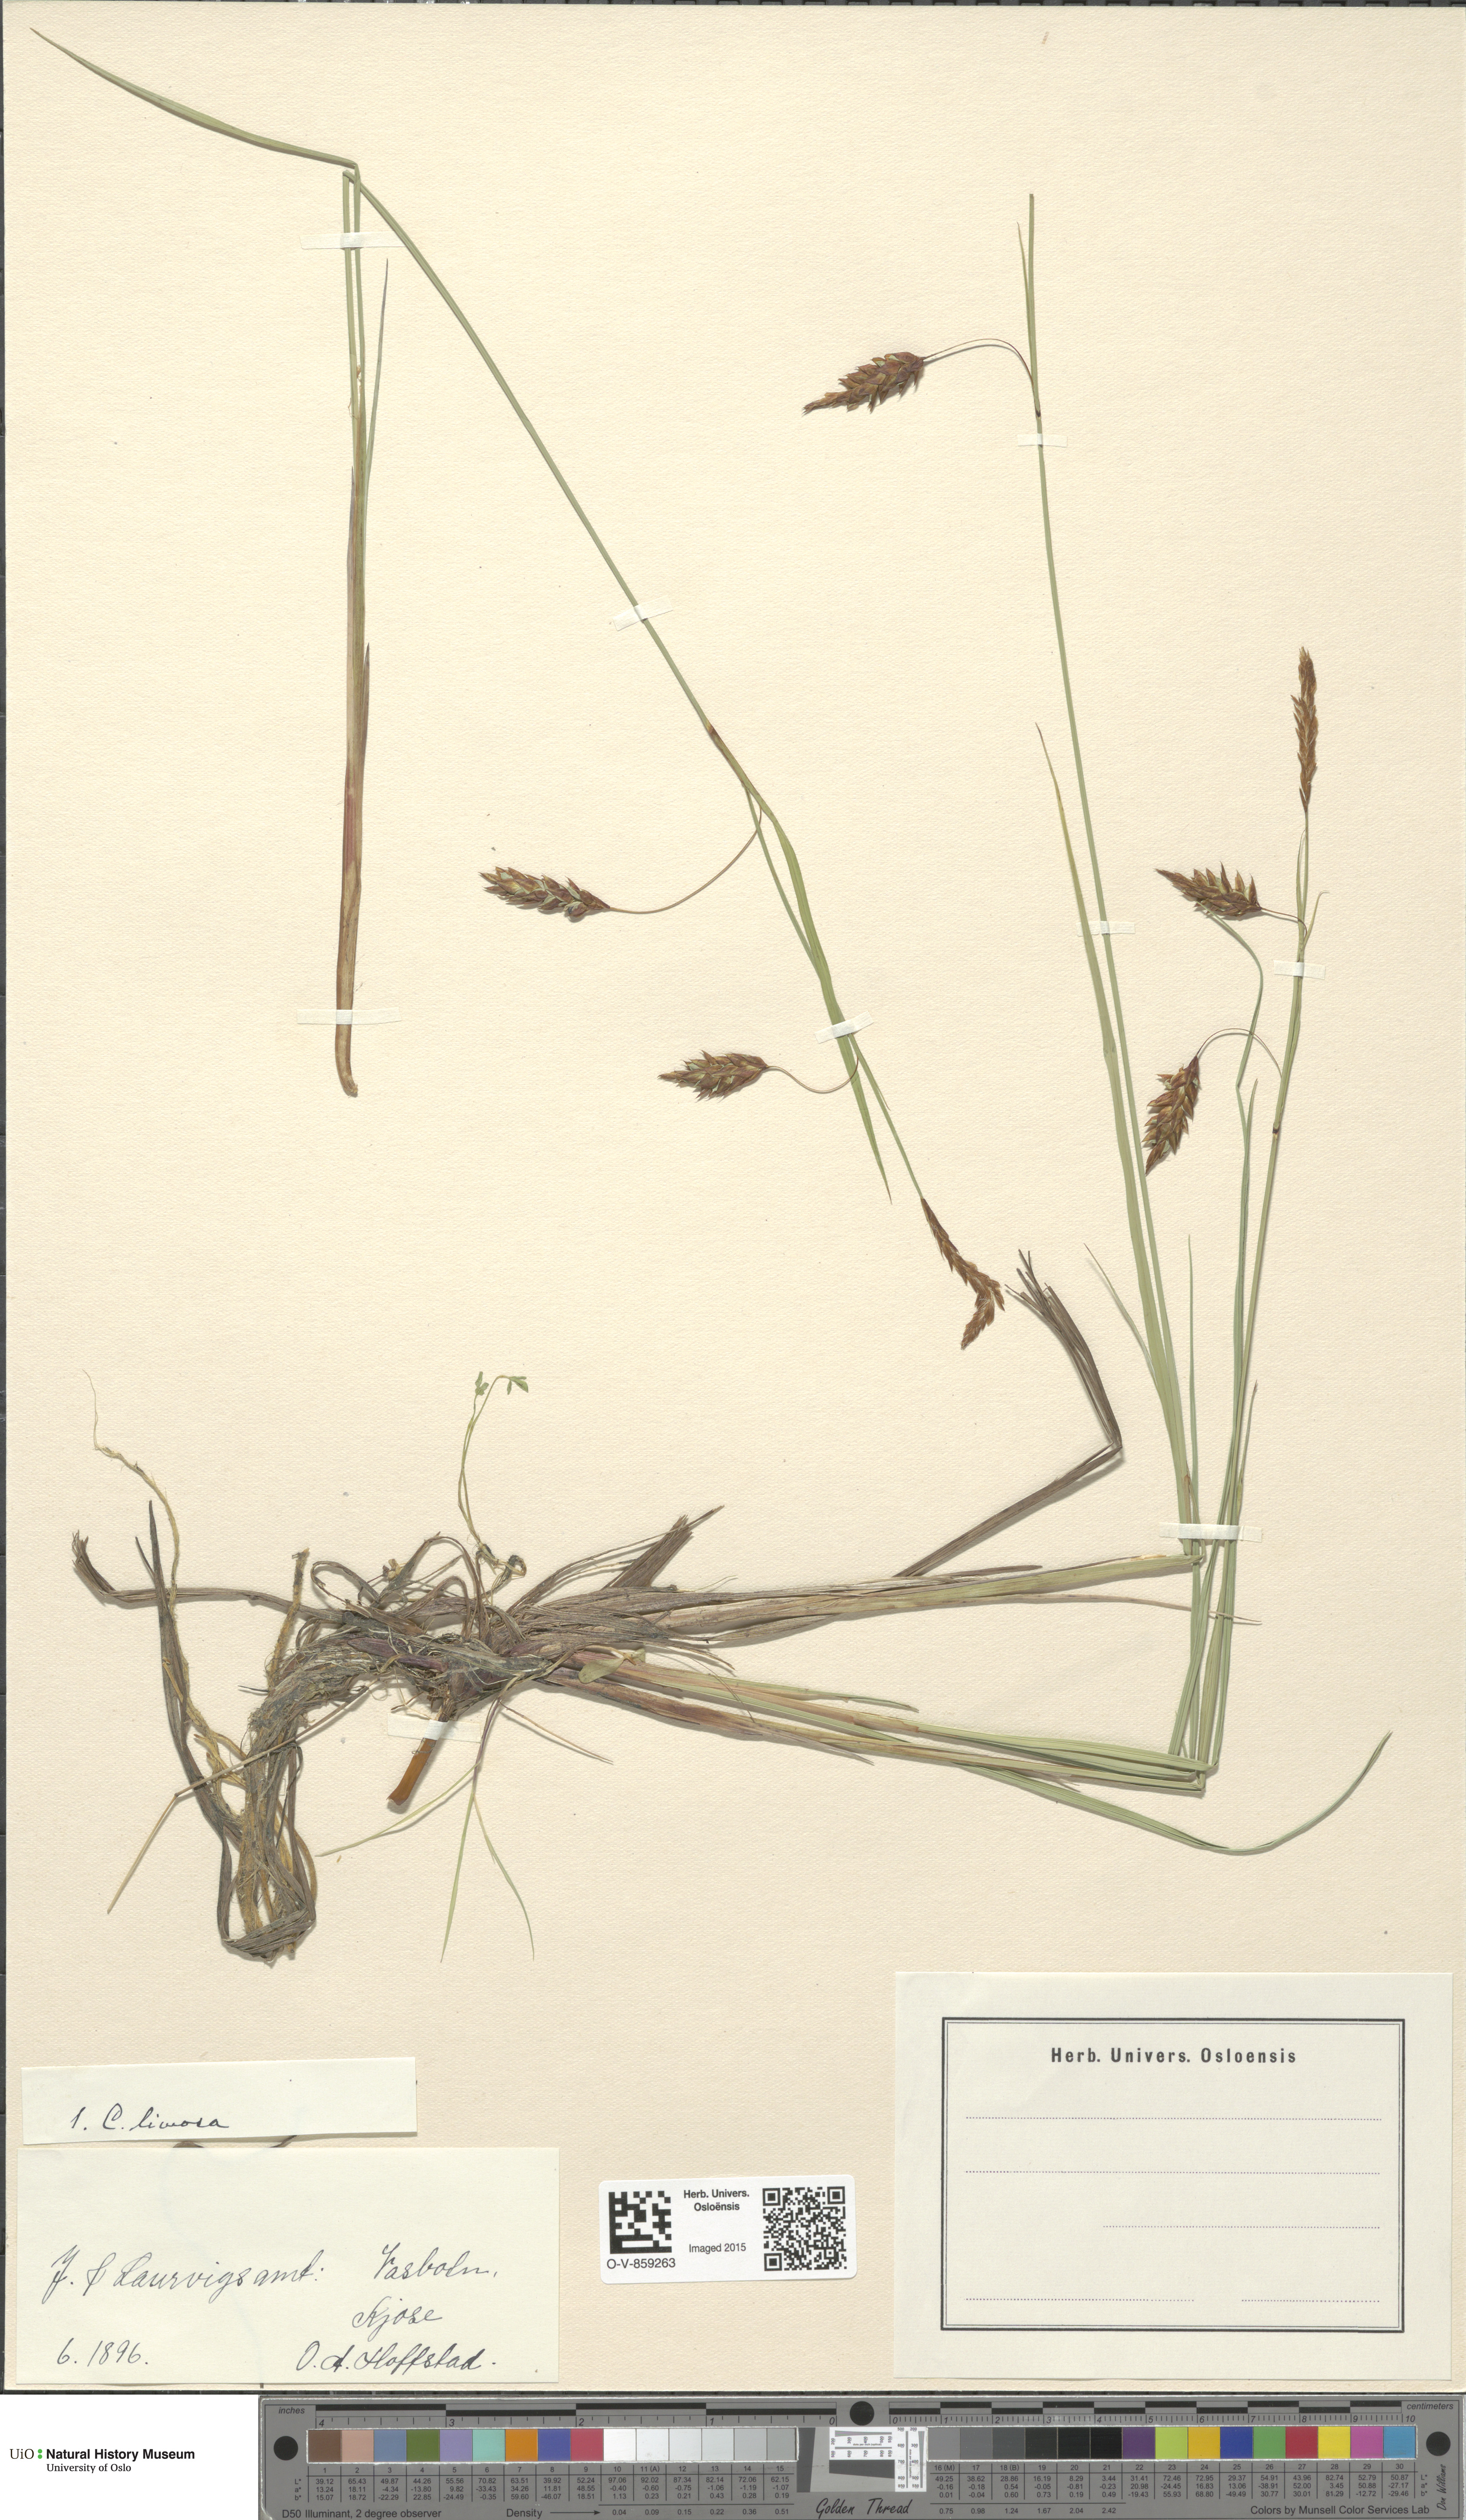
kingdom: Plantae
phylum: Tracheophyta
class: Liliopsida
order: Poales
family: Cyperaceae
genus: Carex
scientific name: Carex limosa
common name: Bog sedge
